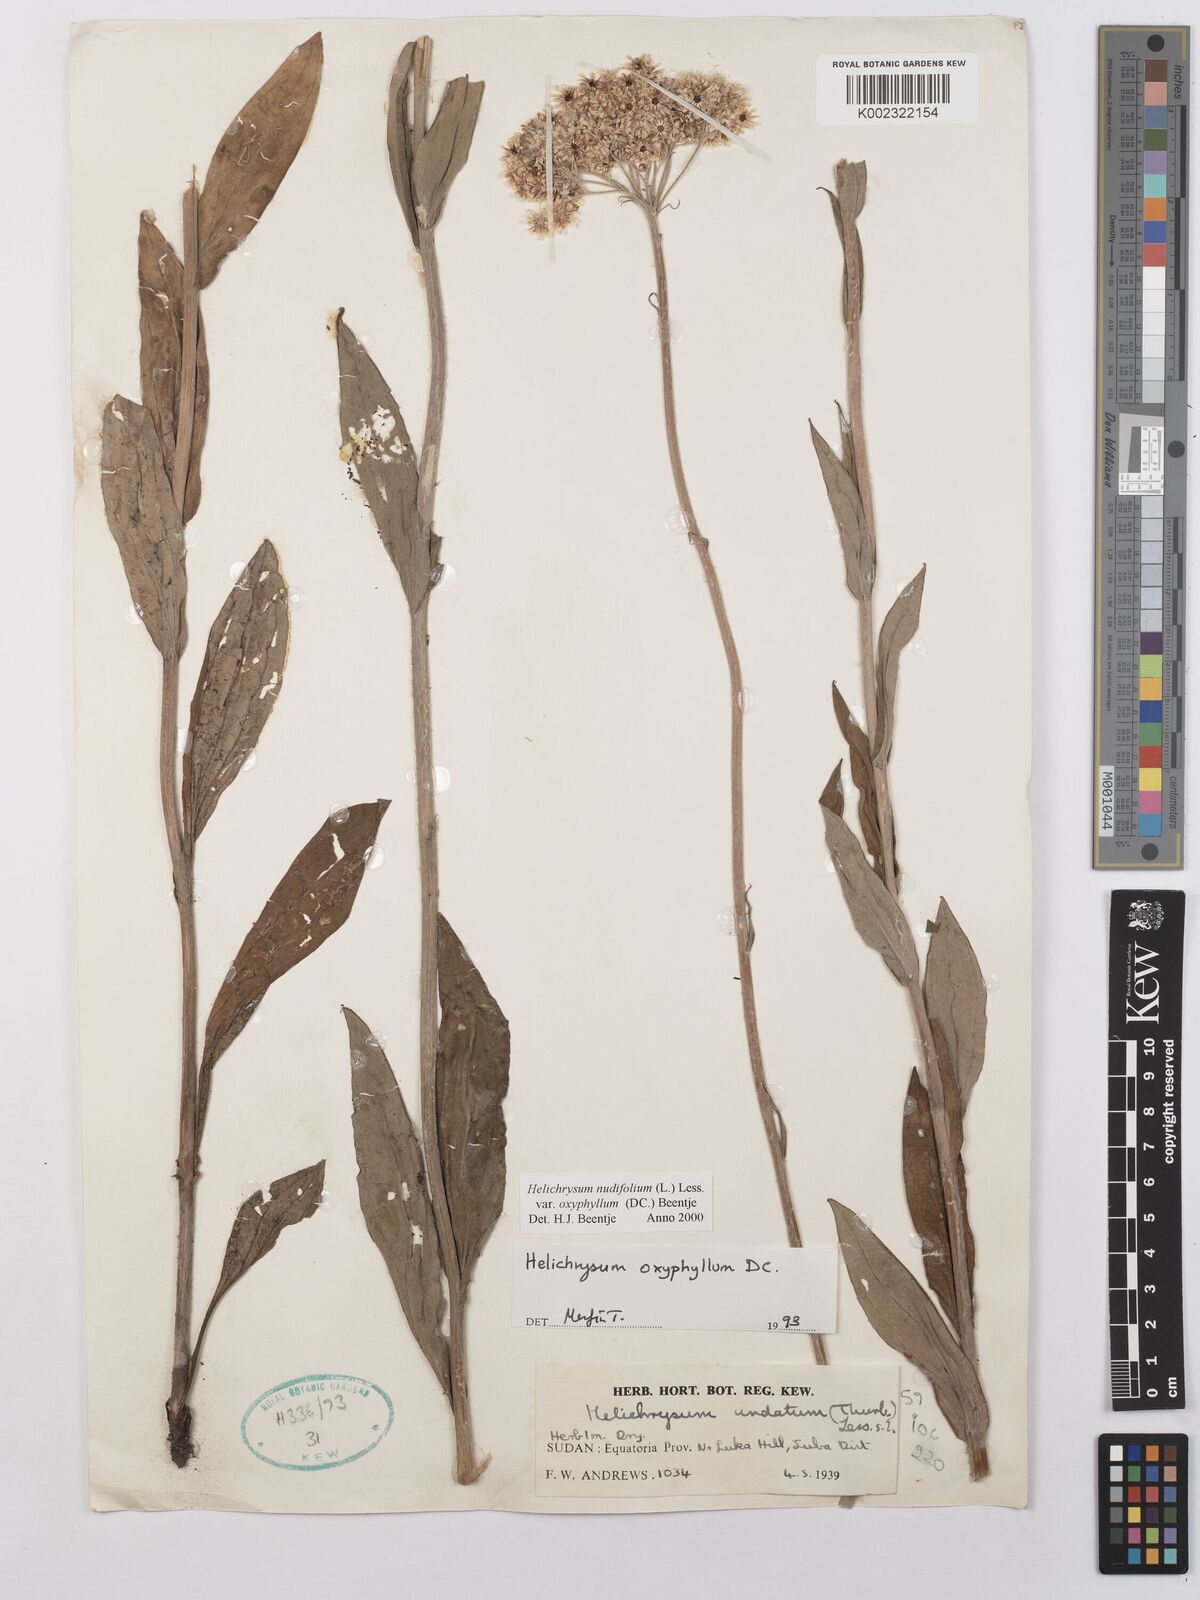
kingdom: Plantae
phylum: Tracheophyta
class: Magnoliopsida
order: Asterales
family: Asteraceae
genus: Helichrysum
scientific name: Helichrysum nudifolium
